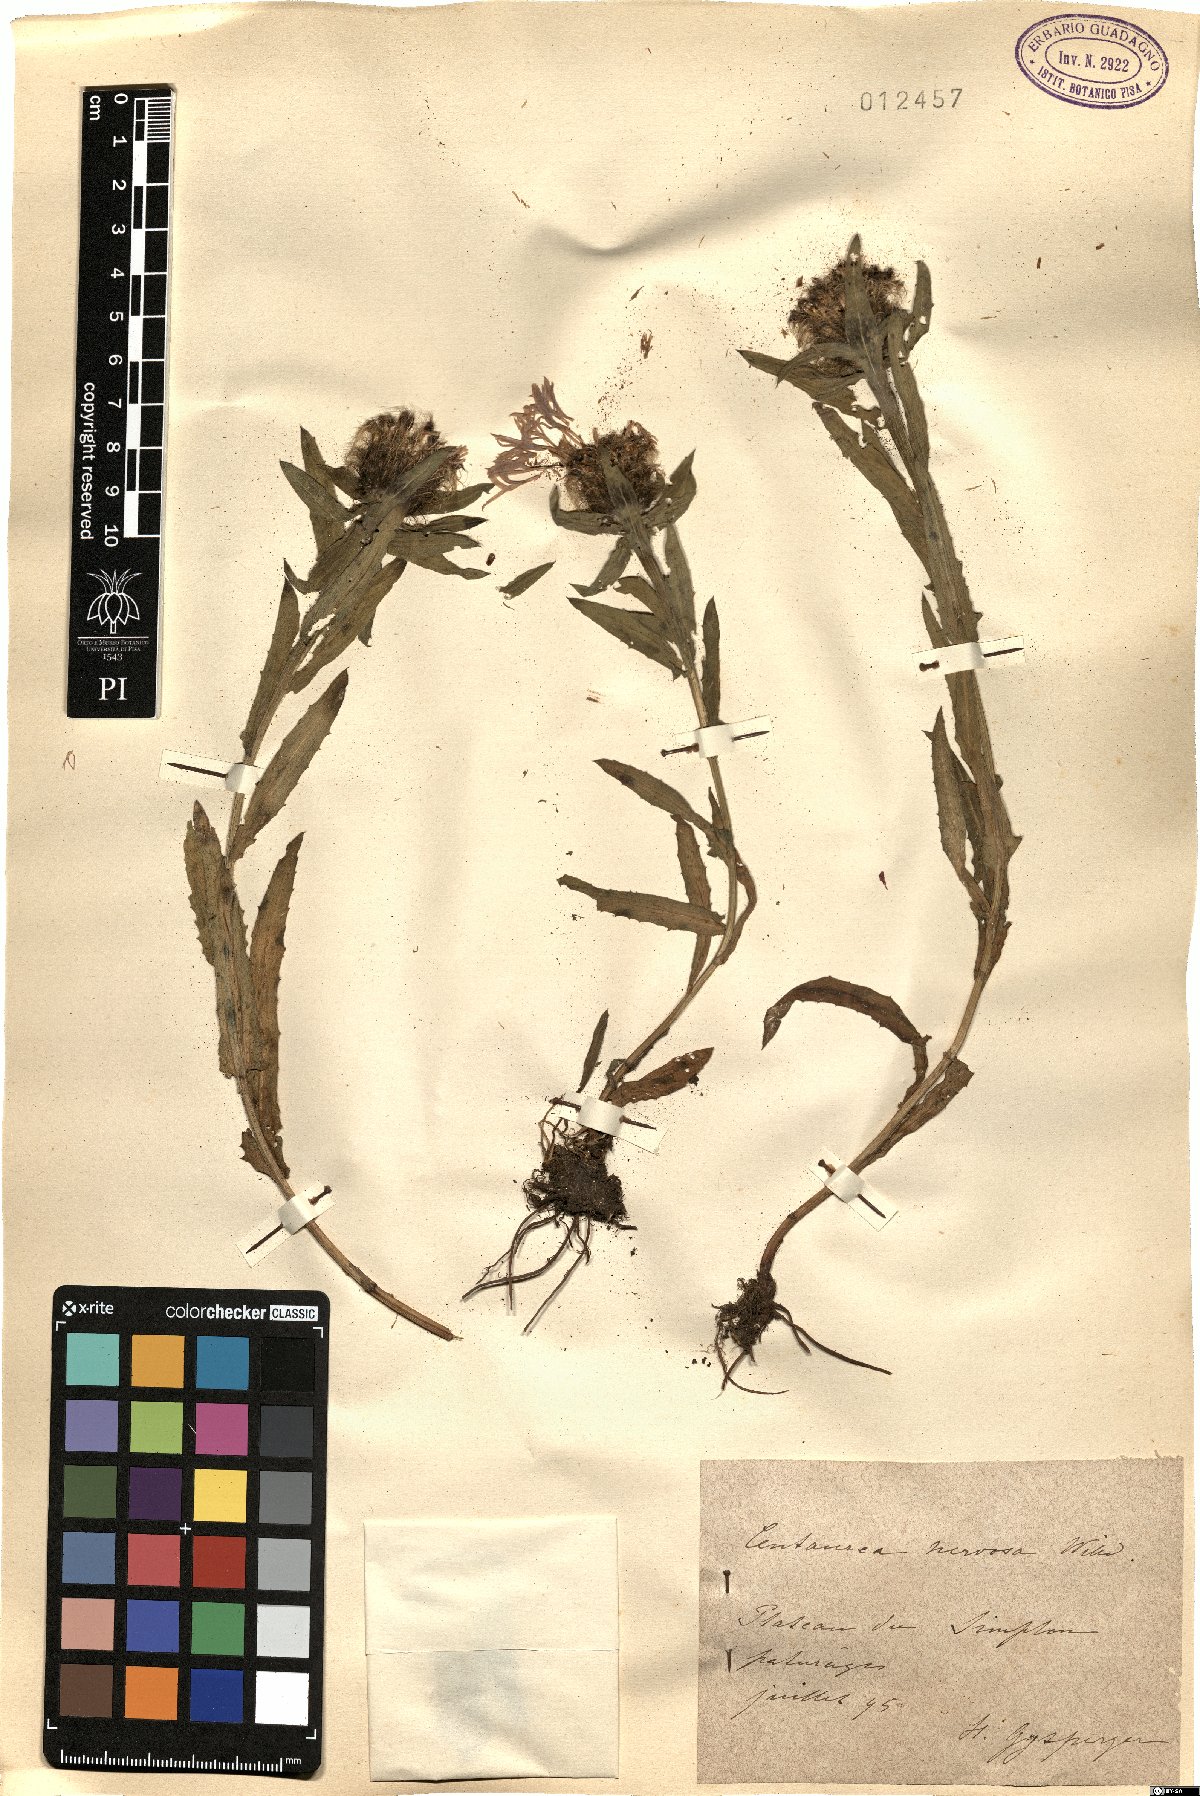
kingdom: Plantae
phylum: Tracheophyta
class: Magnoliopsida
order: Asterales
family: Asteraceae
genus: Centaurea
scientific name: Centaurea nervosa
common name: Singleflower knapweed
